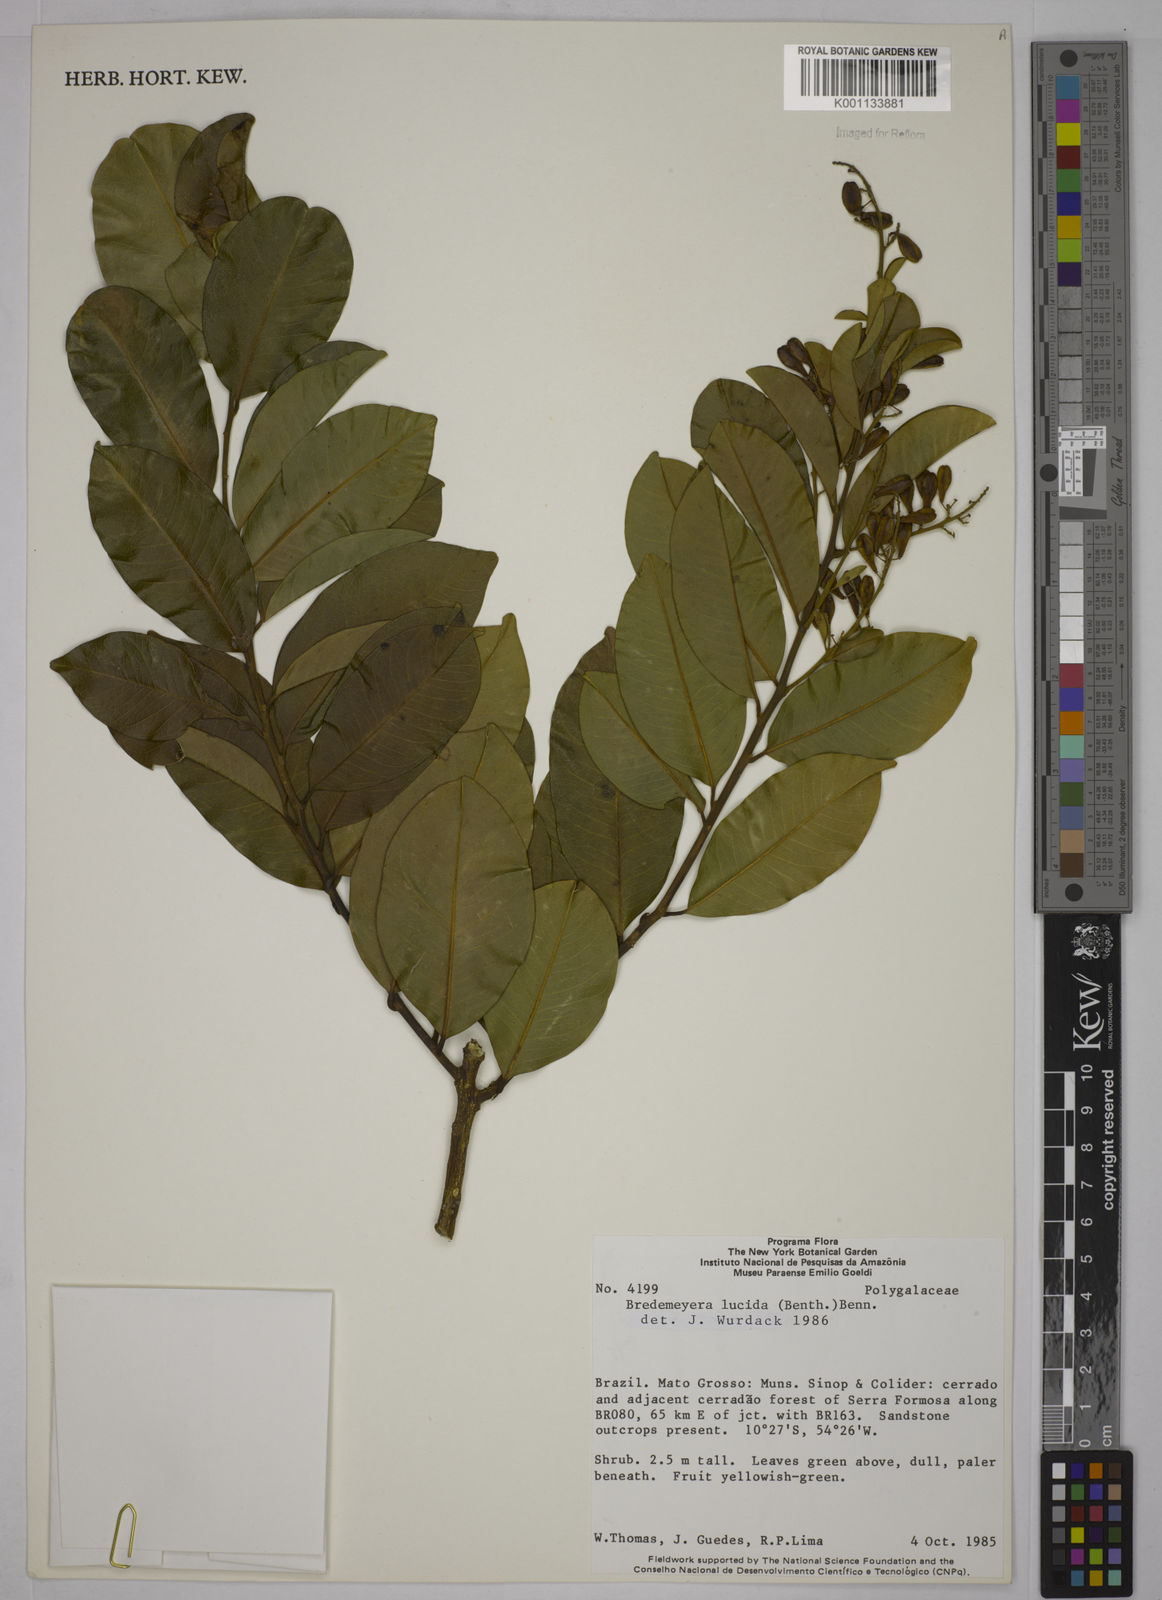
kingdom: Plantae
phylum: Tracheophyta
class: Magnoliopsida
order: Fabales
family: Polygalaceae
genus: Bredemeyera
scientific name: Bredemeyera lucida
